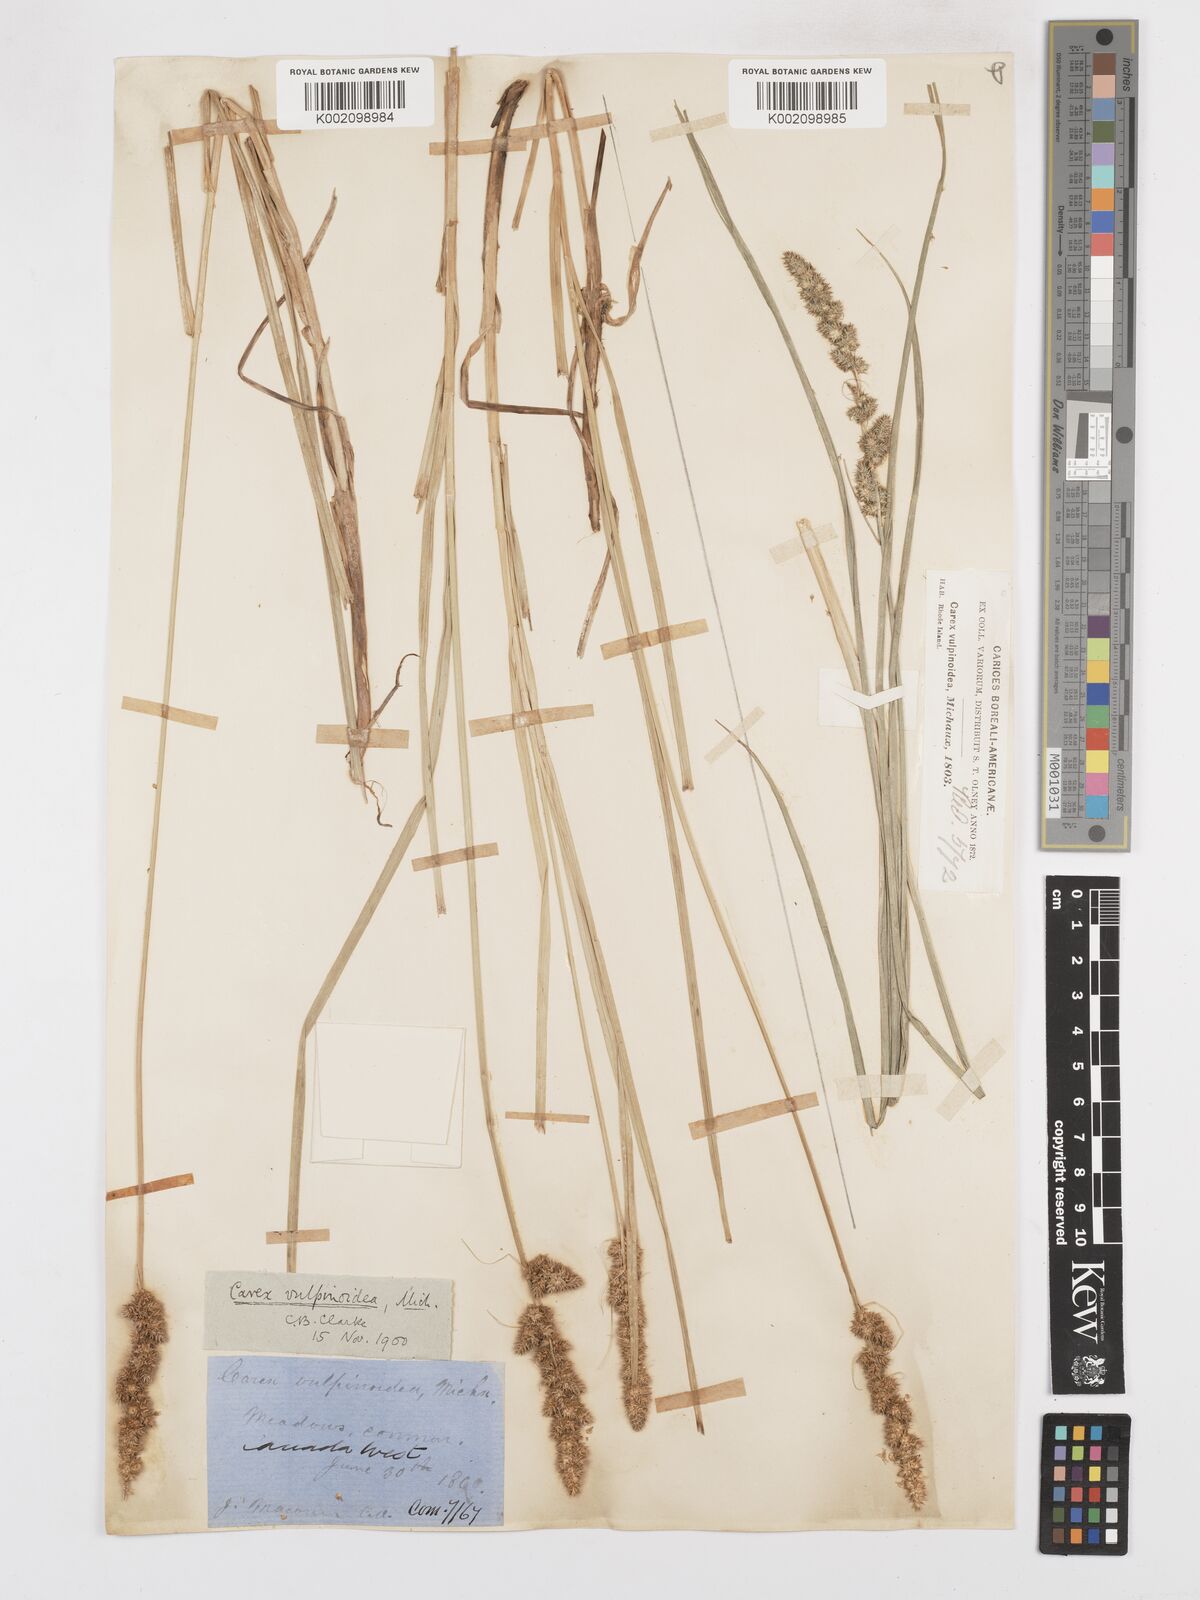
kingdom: Plantae
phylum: Tracheophyta
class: Liliopsida
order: Poales
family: Cyperaceae
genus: Carex
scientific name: Carex vulpinoidea
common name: American fox-sedge
